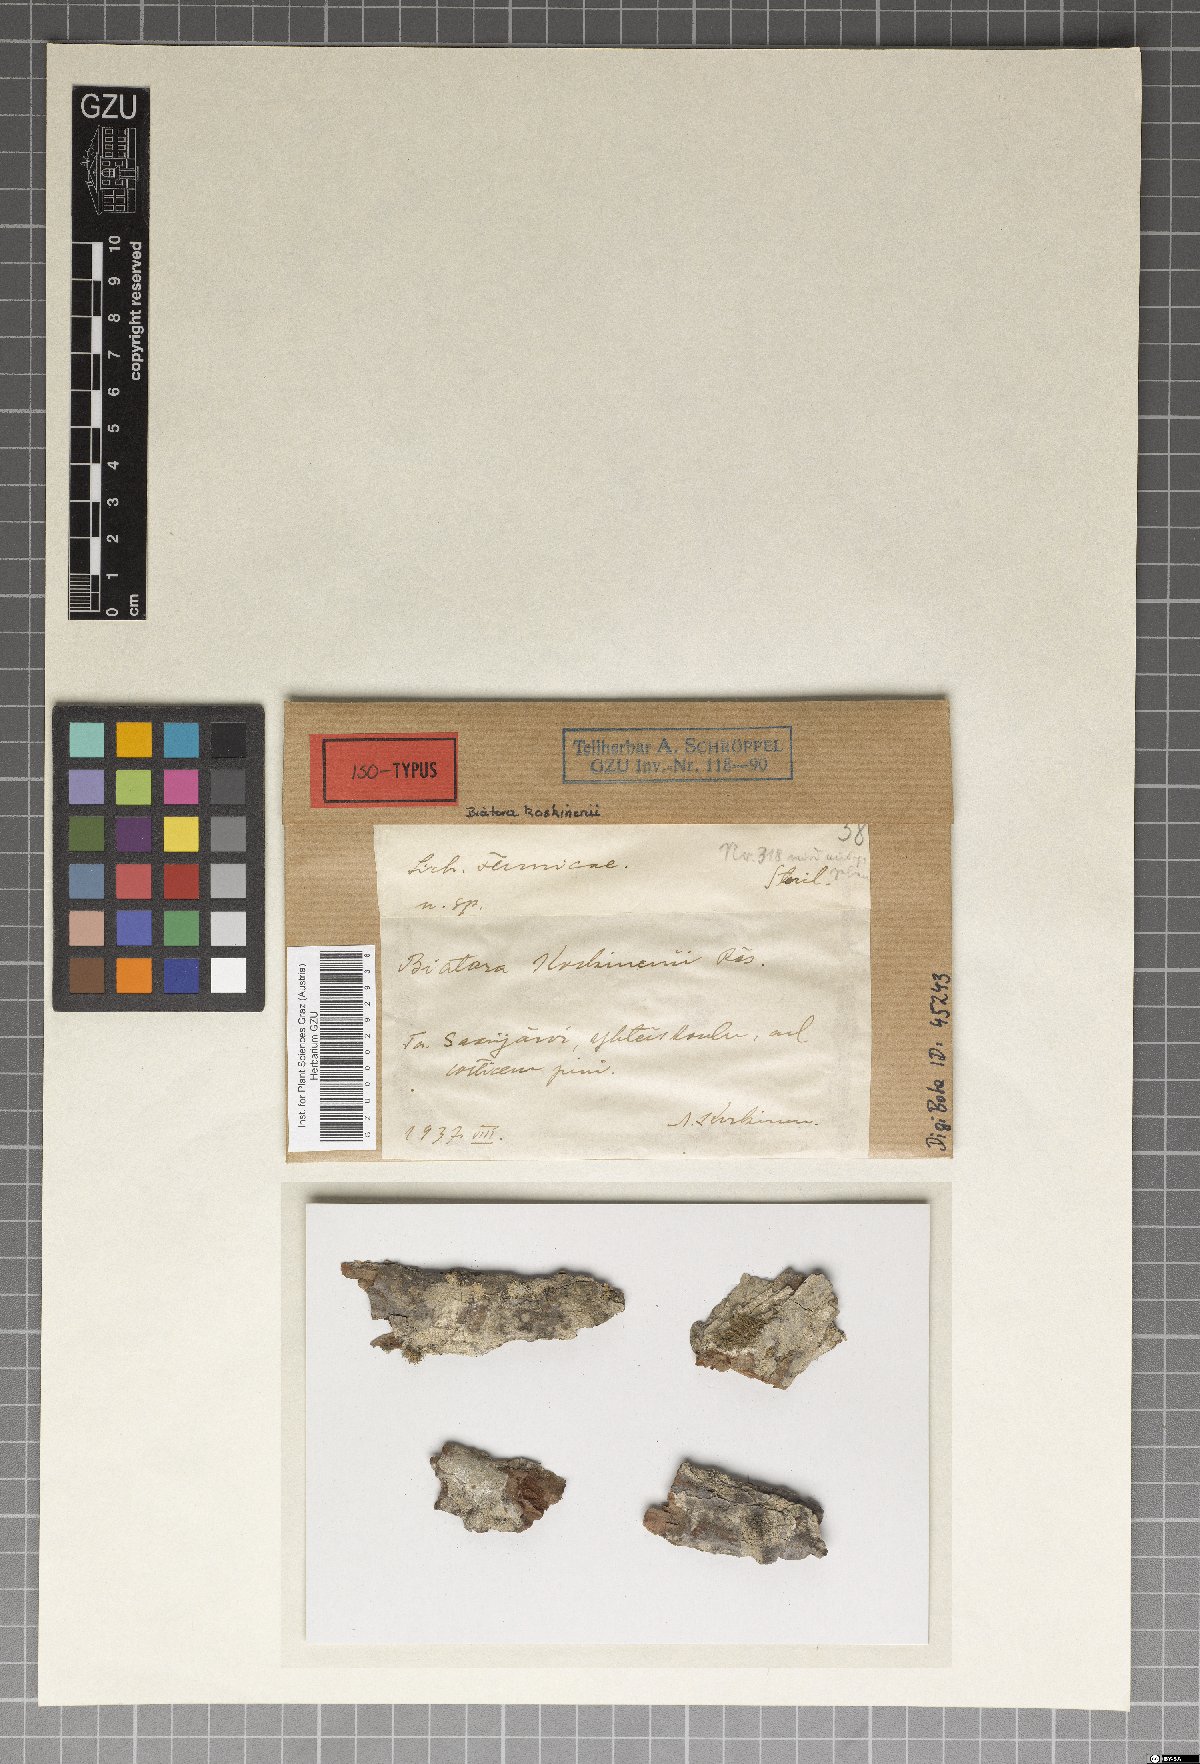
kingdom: Fungi
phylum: Ascomycota
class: Lecanoromycetes
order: Lecideales
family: Lecideaceae
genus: Lecidea
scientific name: Lecidea koskinenii
